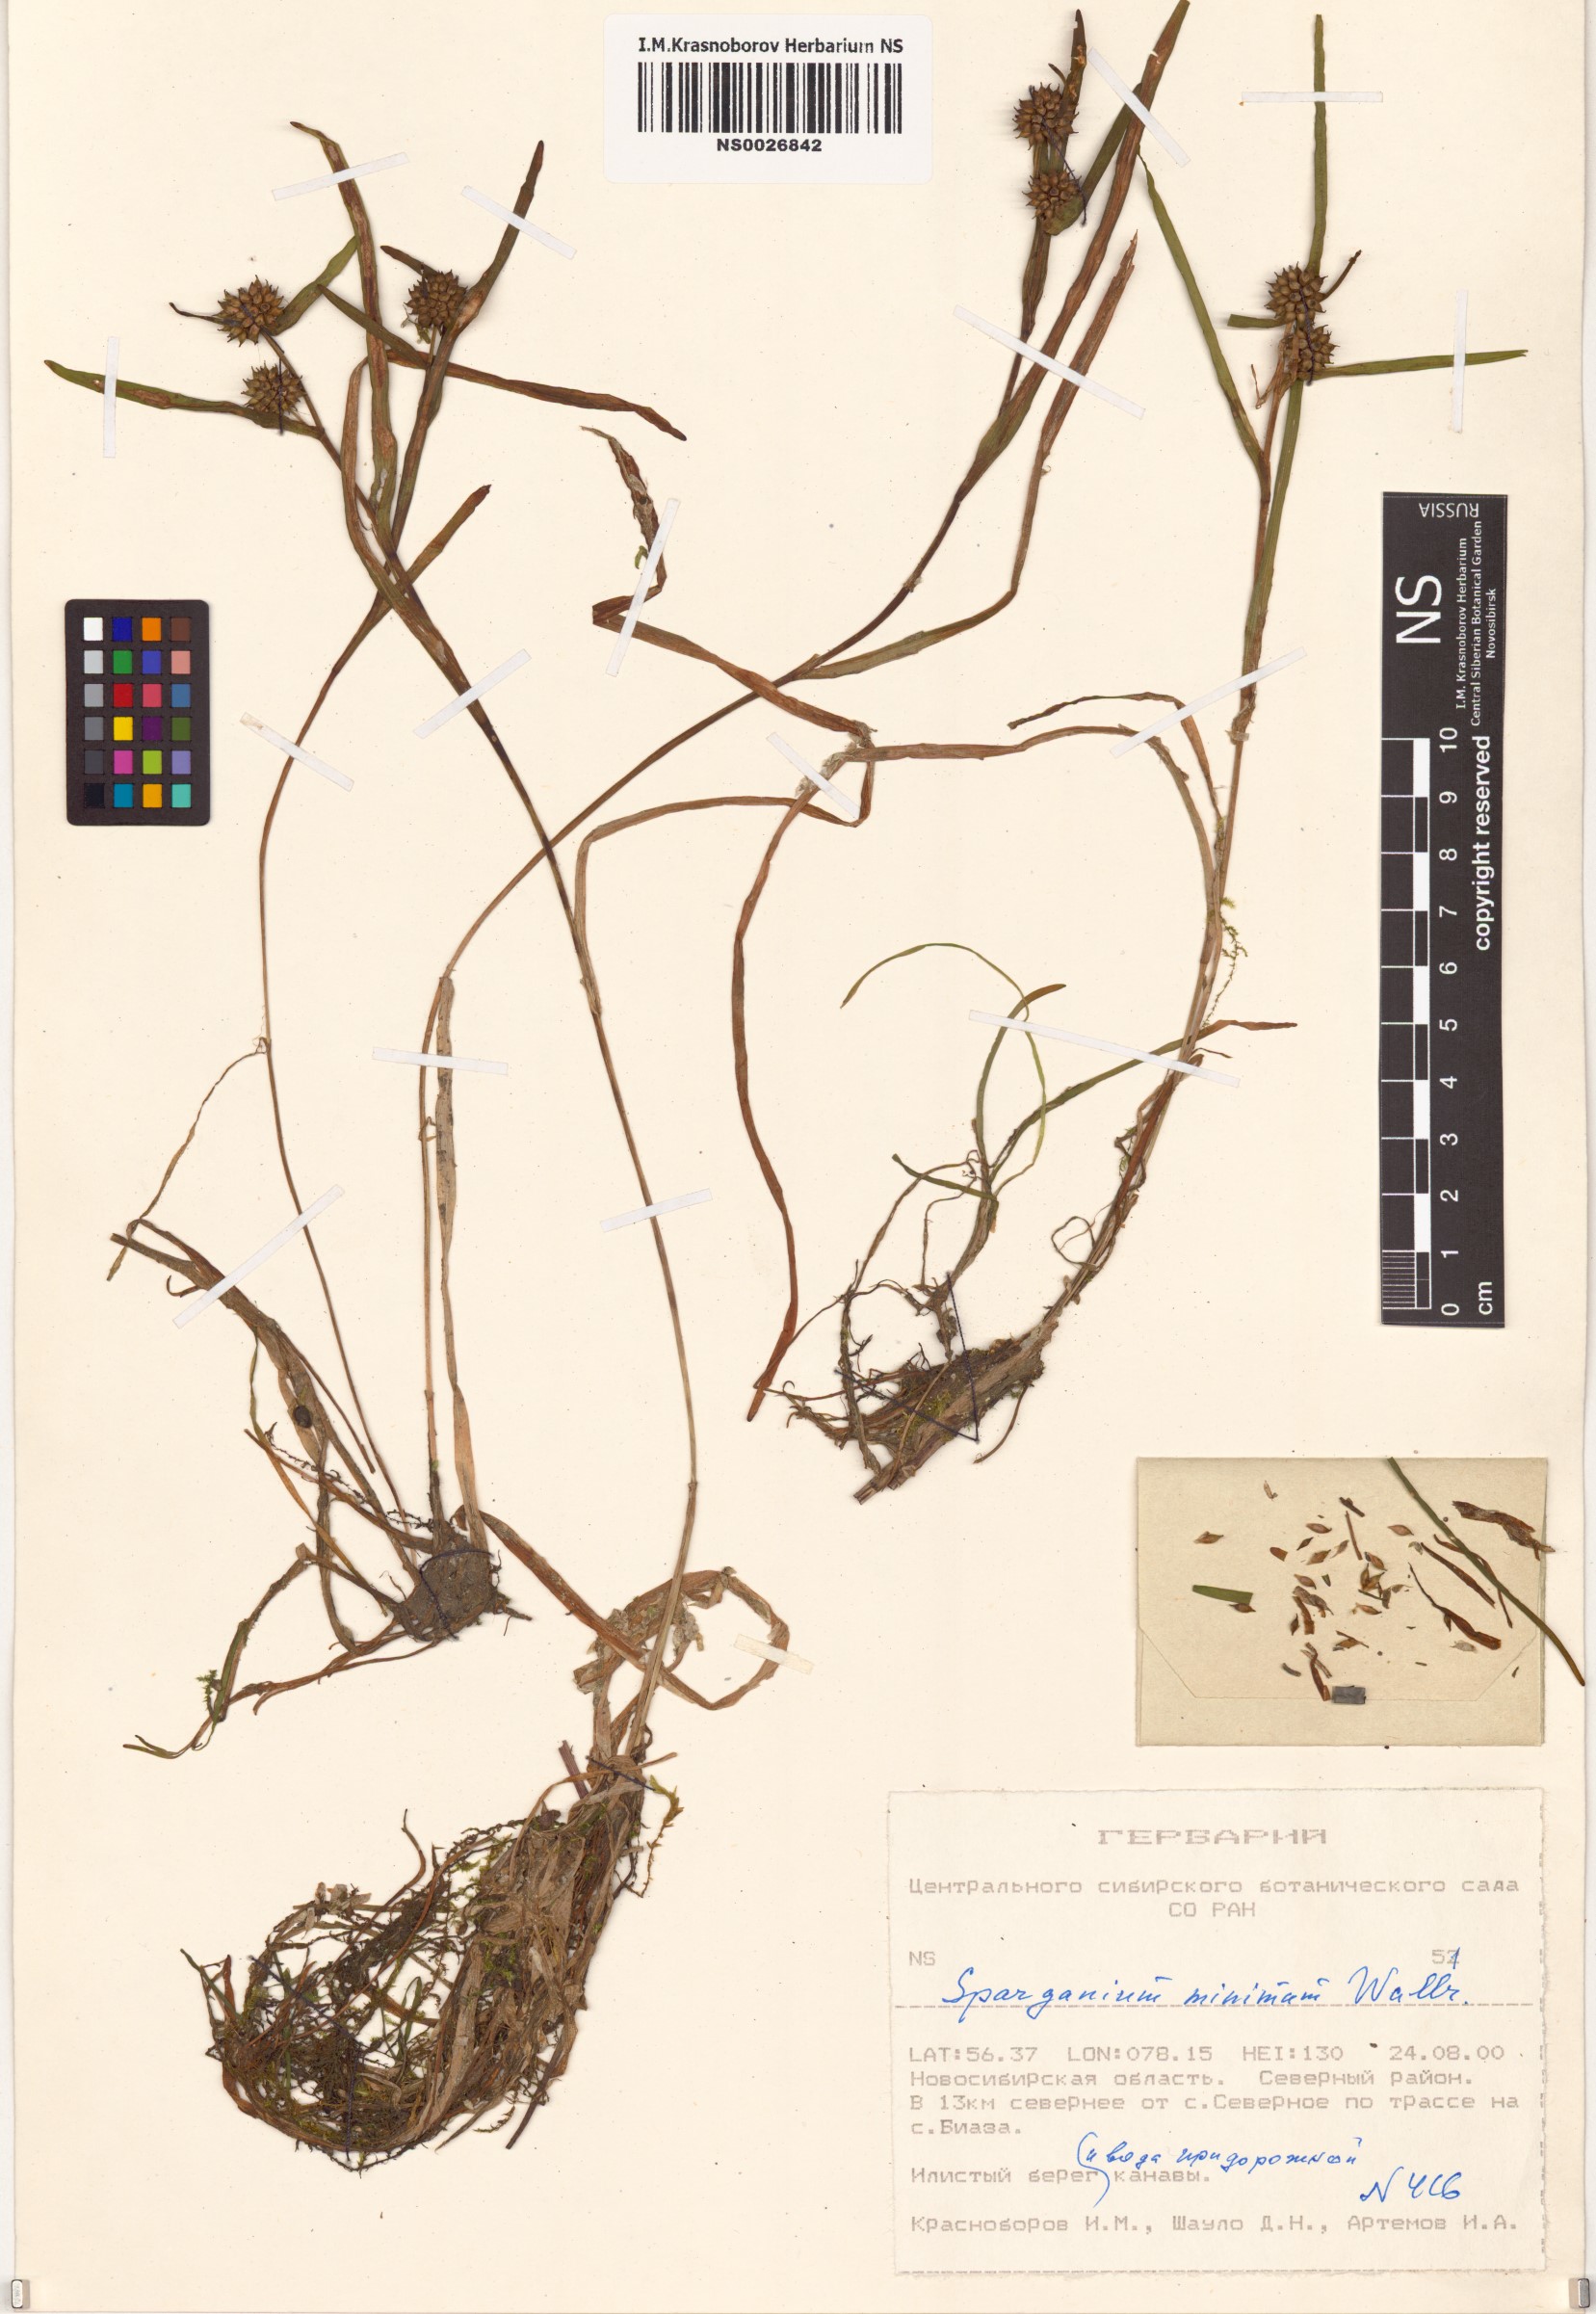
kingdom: Plantae
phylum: Tracheophyta
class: Liliopsida
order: Poales
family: Typhaceae
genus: Sparganium
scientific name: Sparganium natans
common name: Least bur-reed
